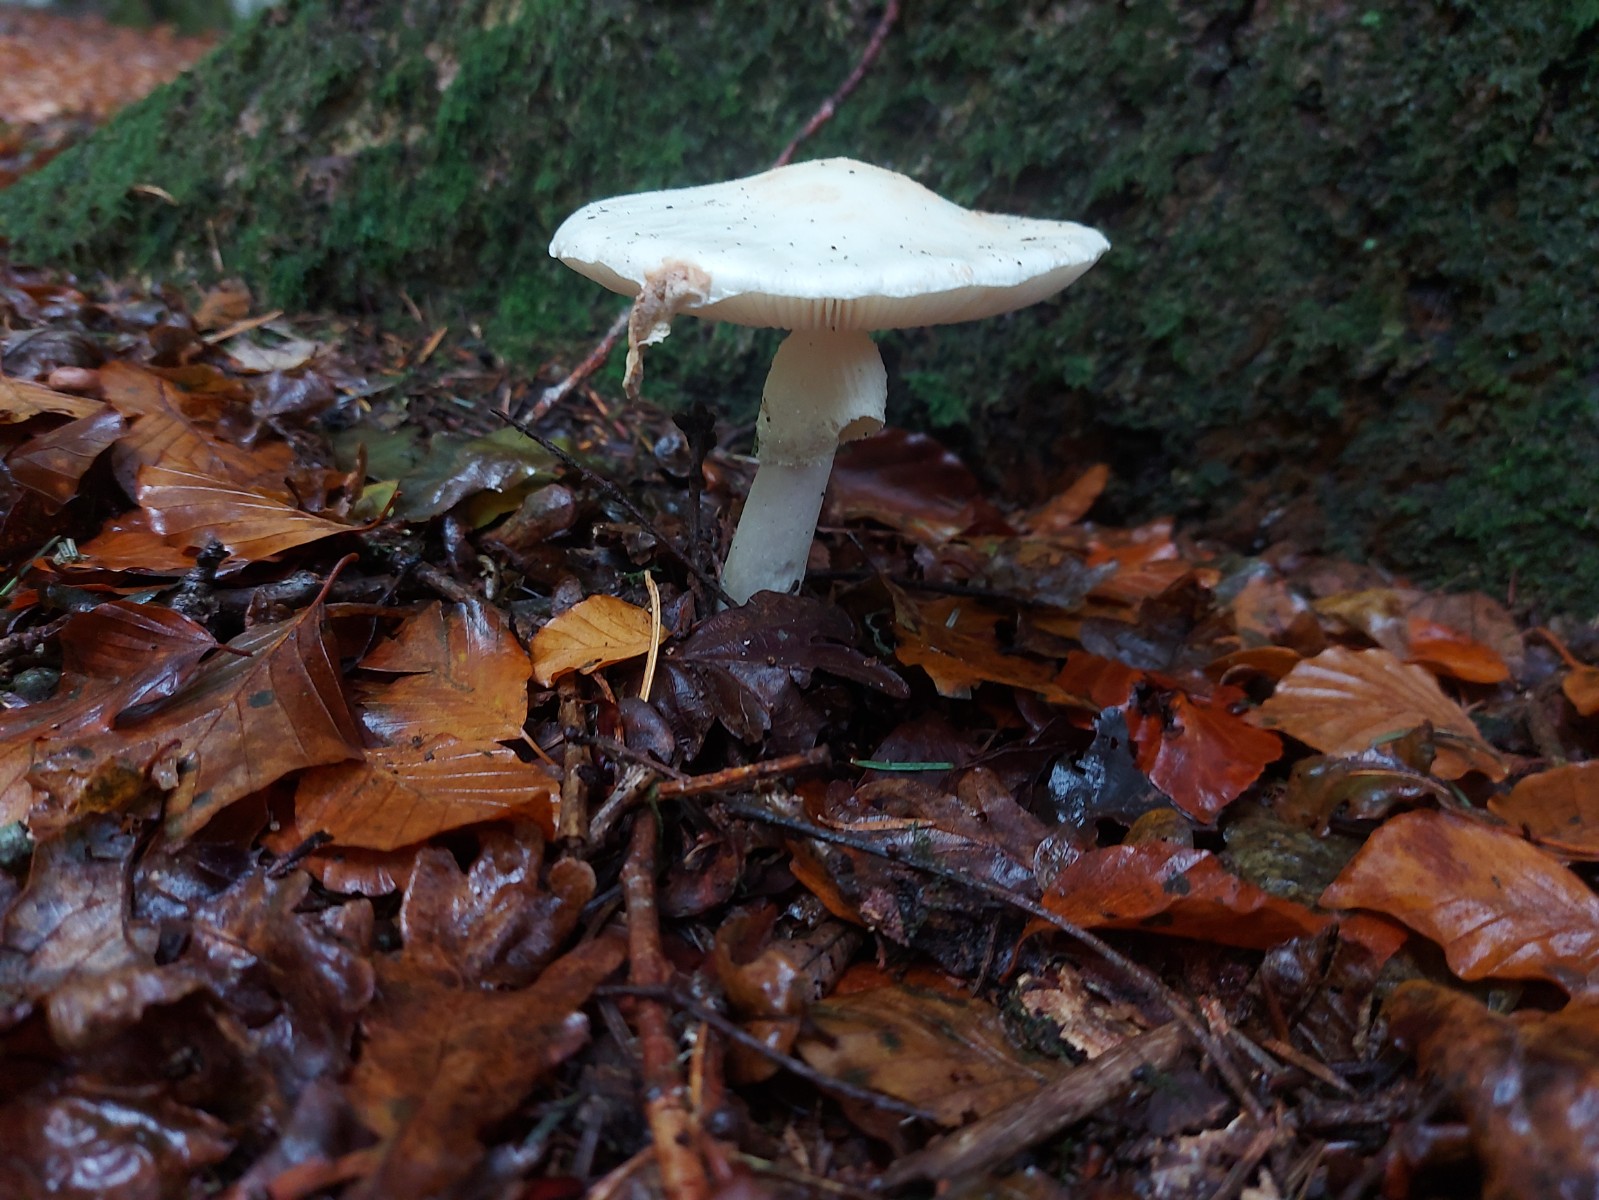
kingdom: Fungi
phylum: Basidiomycota
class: Agaricomycetes
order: Agaricales
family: Amanitaceae
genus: Amanita
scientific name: Amanita citrina
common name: False death-cap
